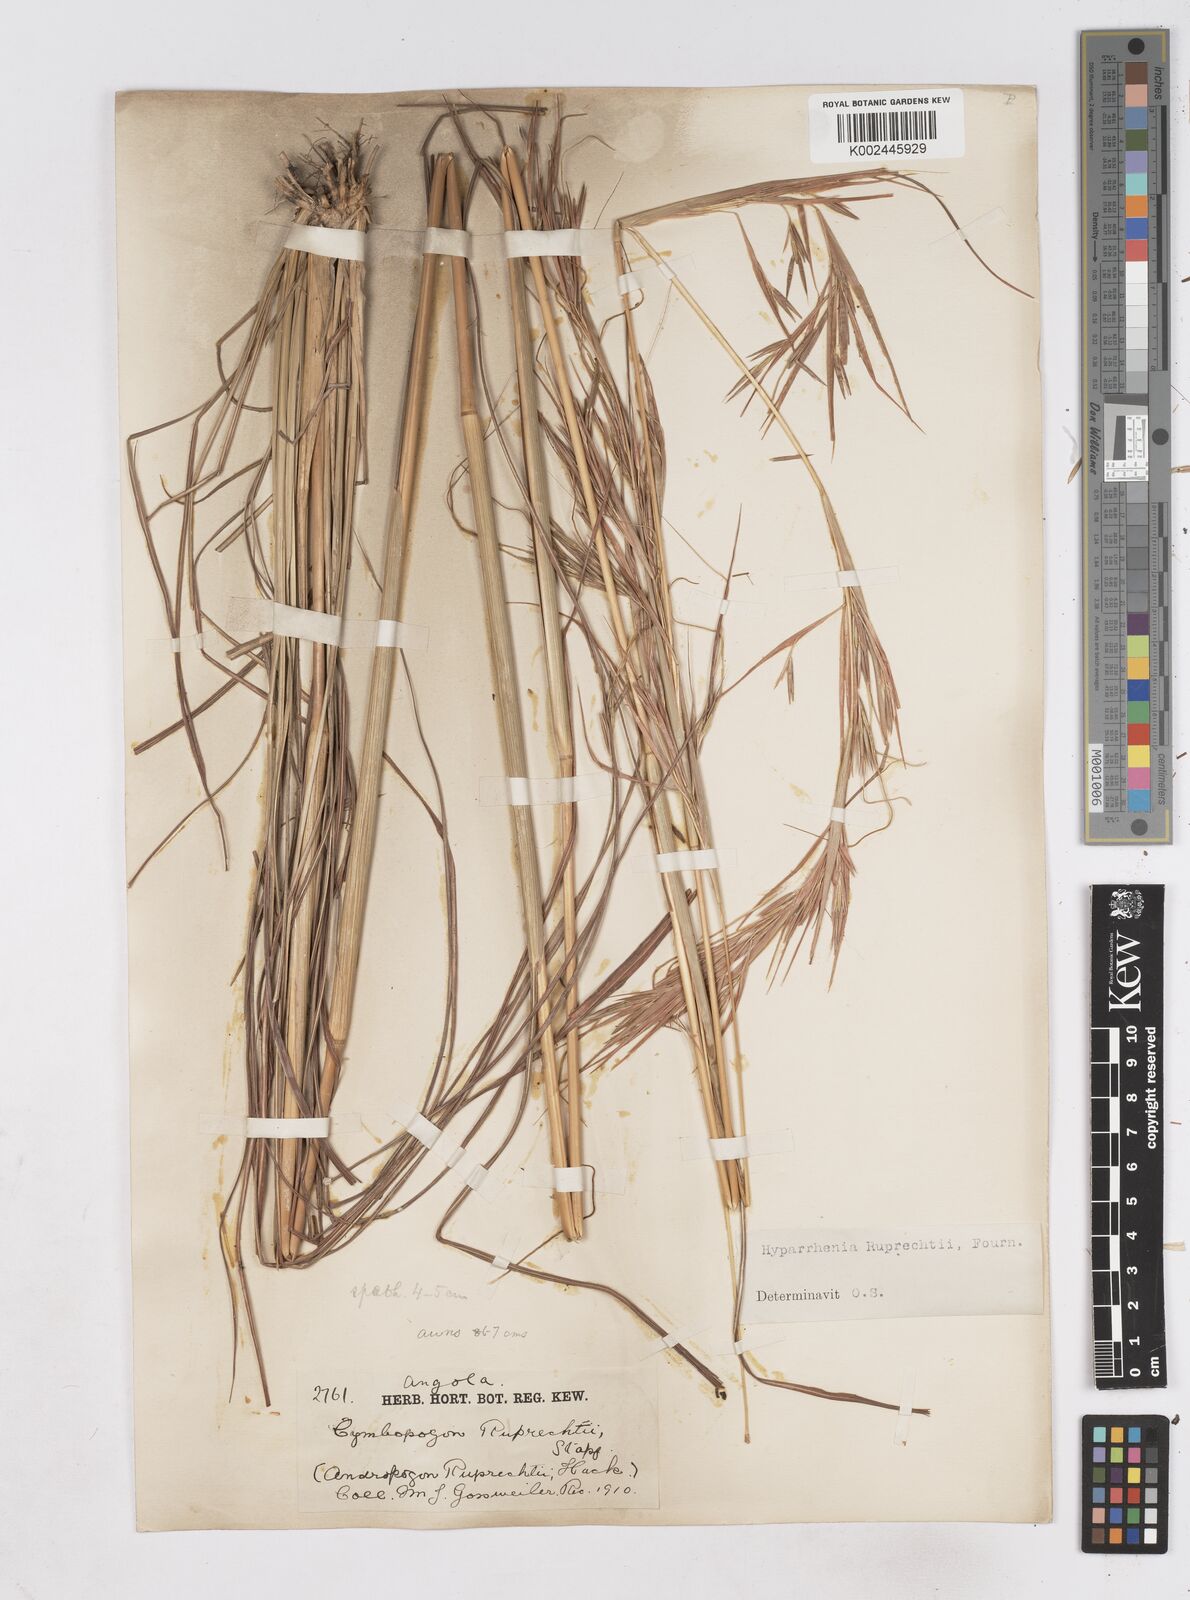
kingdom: Plantae
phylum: Tracheophyta
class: Liliopsida
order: Poales
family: Poaceae
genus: Hyperthelia
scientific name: Hyperthelia dissoluta
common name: Yellow thatching grass
